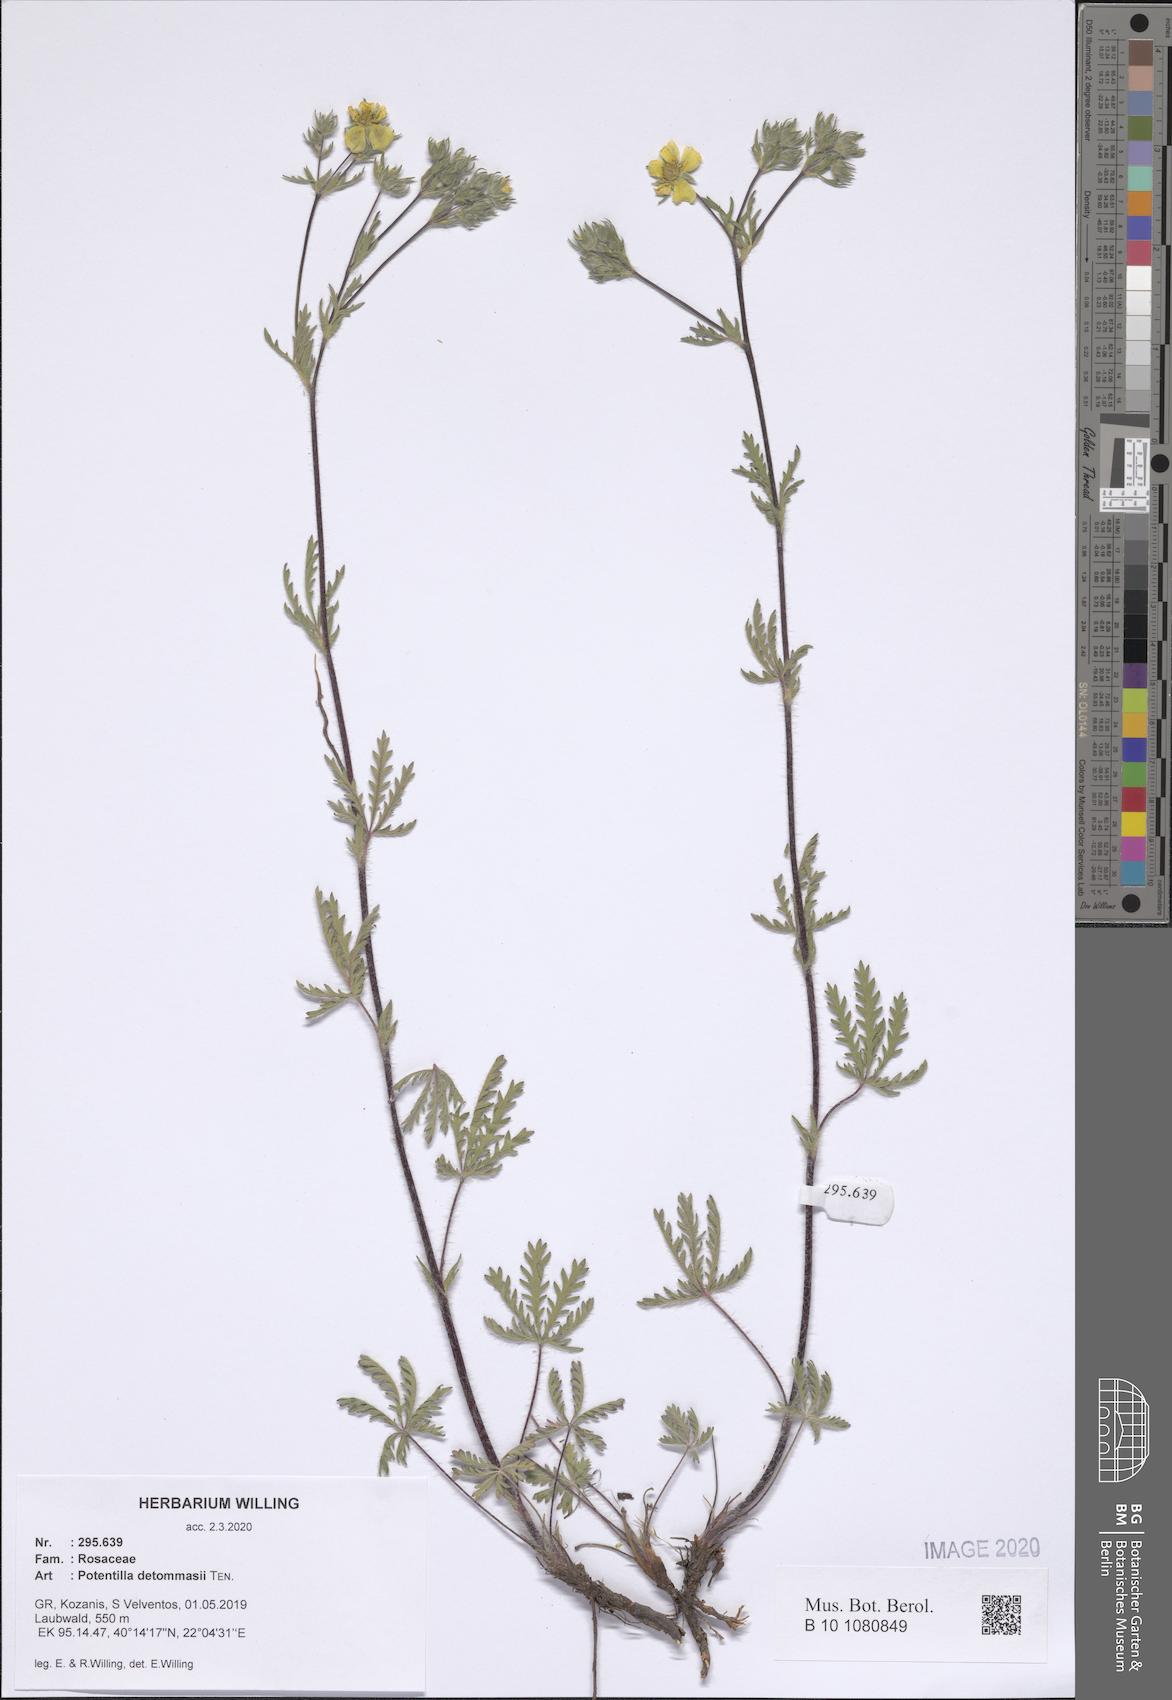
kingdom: Plantae
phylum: Tracheophyta
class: Magnoliopsida
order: Rosales
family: Rosaceae
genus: Potentilla
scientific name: Potentilla detommasii
